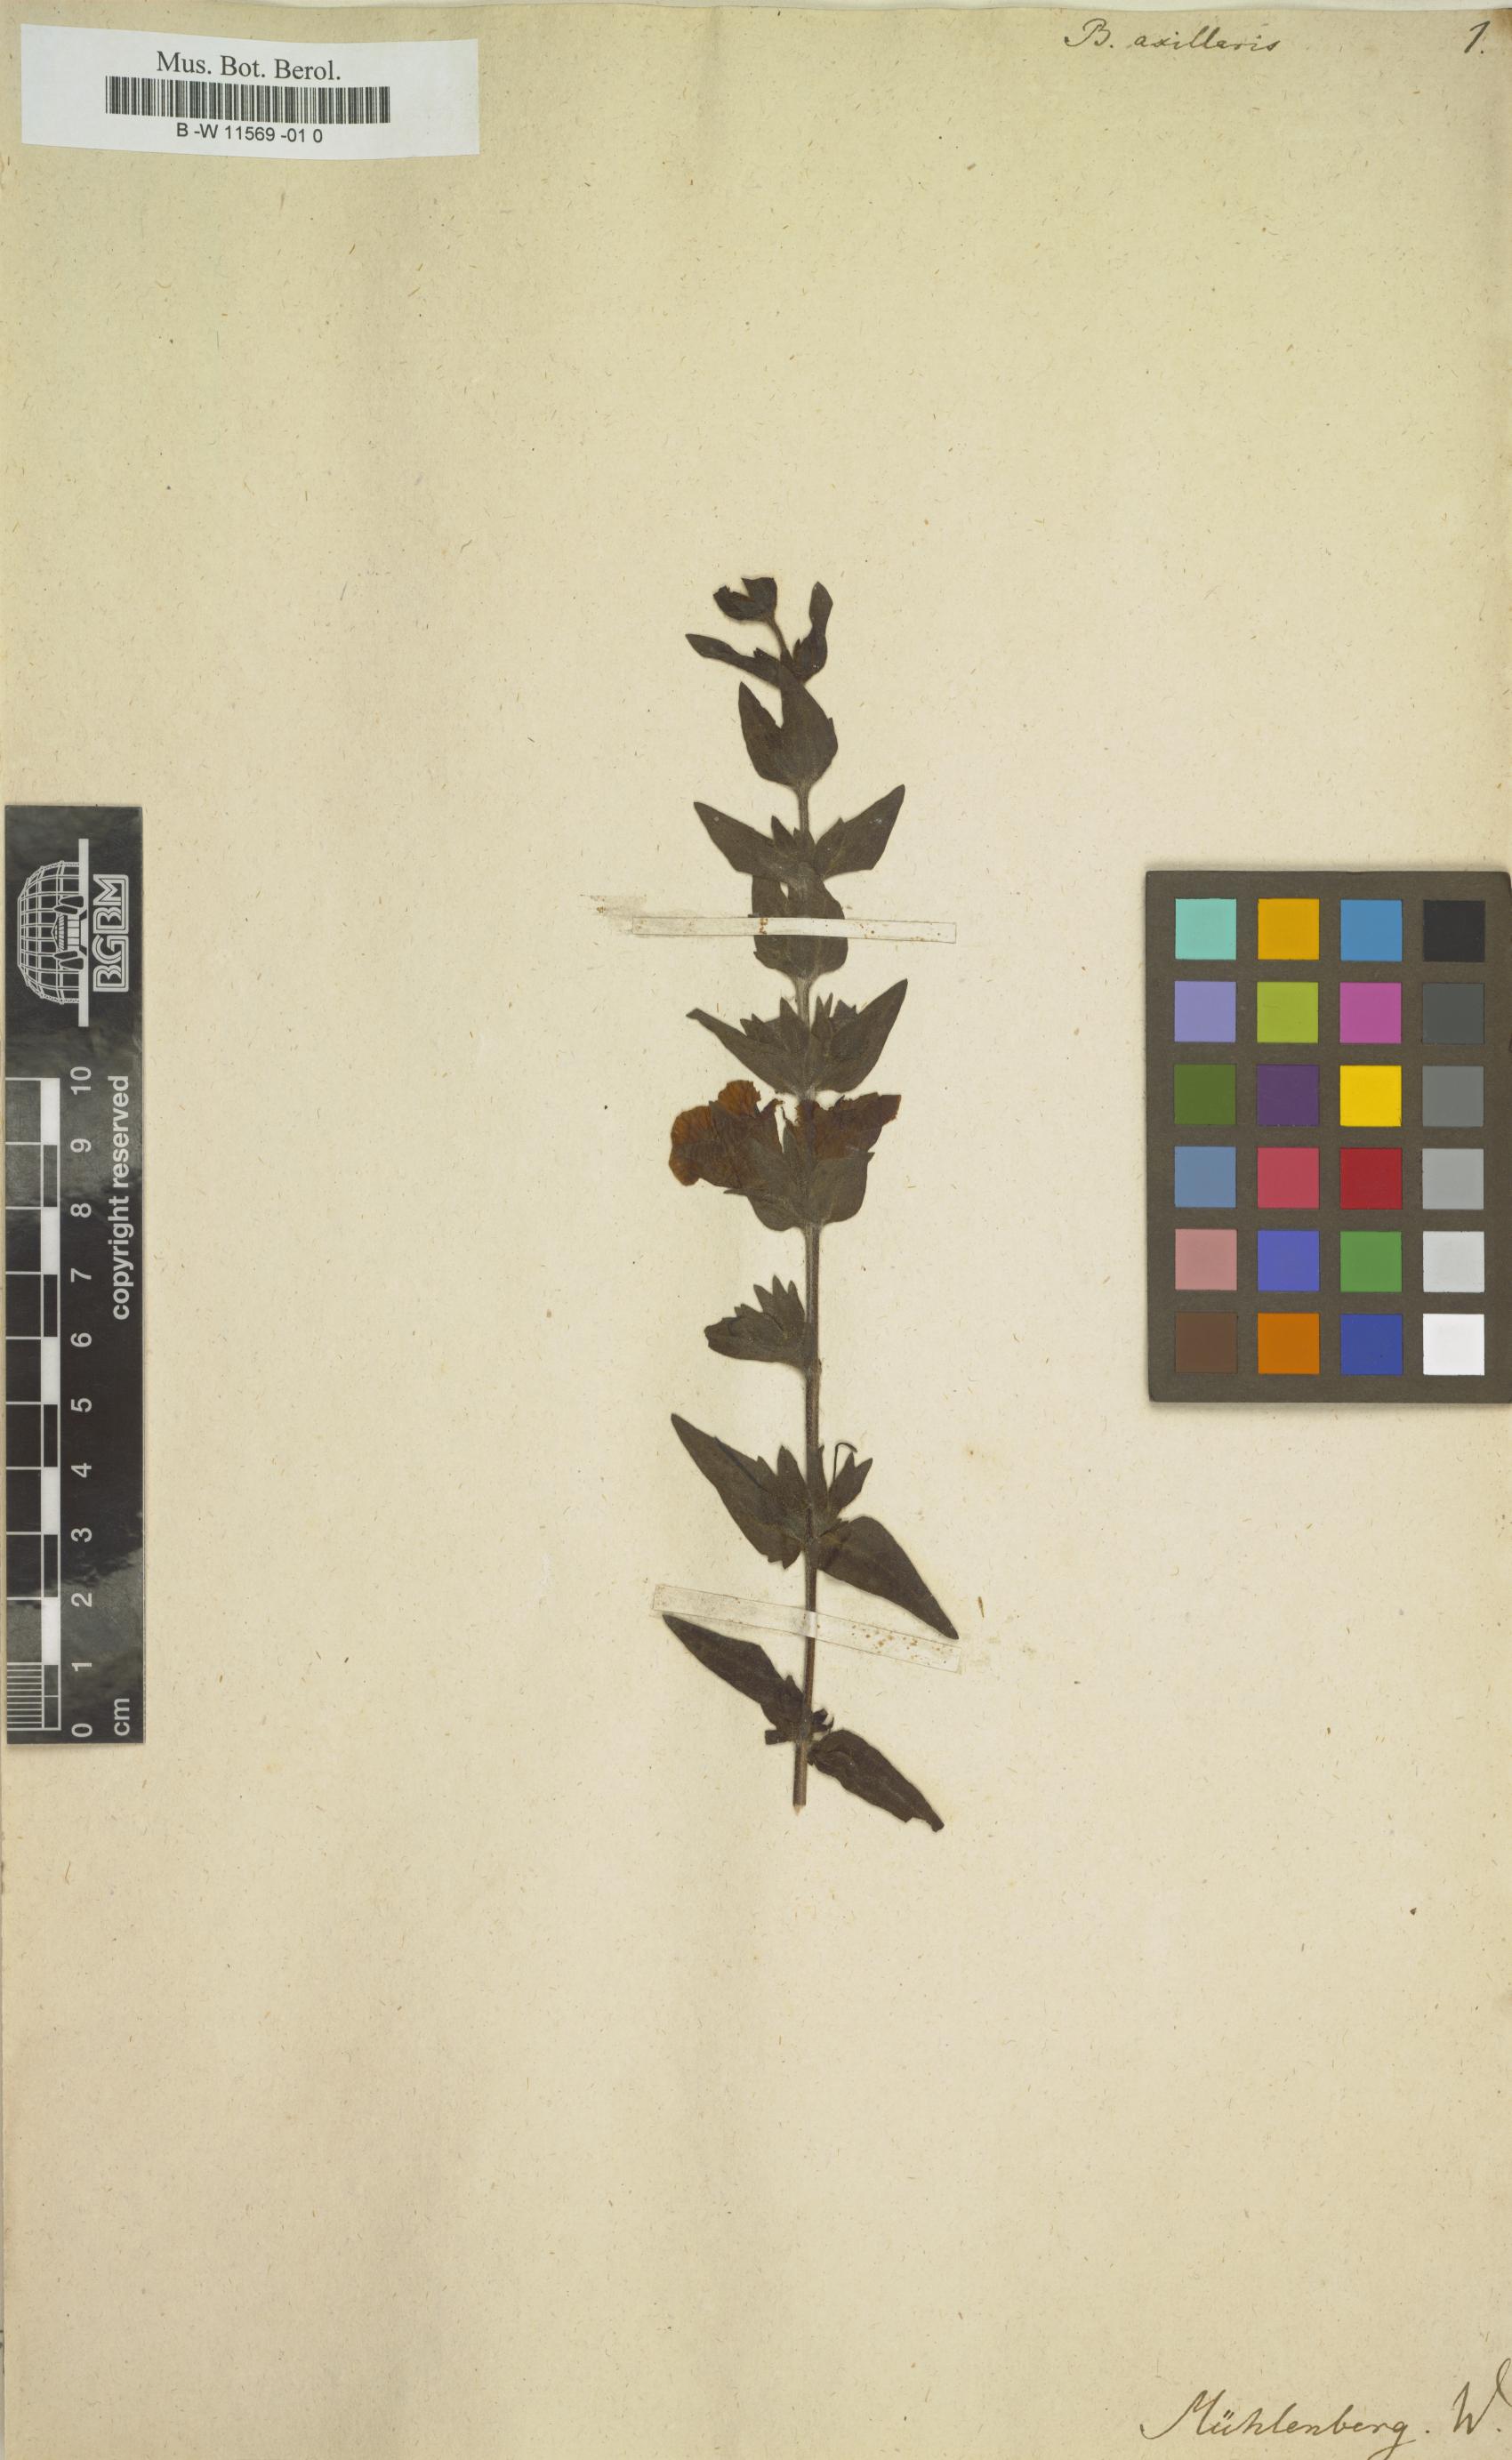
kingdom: Plantae
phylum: Tracheophyta
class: Magnoliopsida
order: Lamiales
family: Orobanchaceae
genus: Buchnera
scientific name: Buchnera
